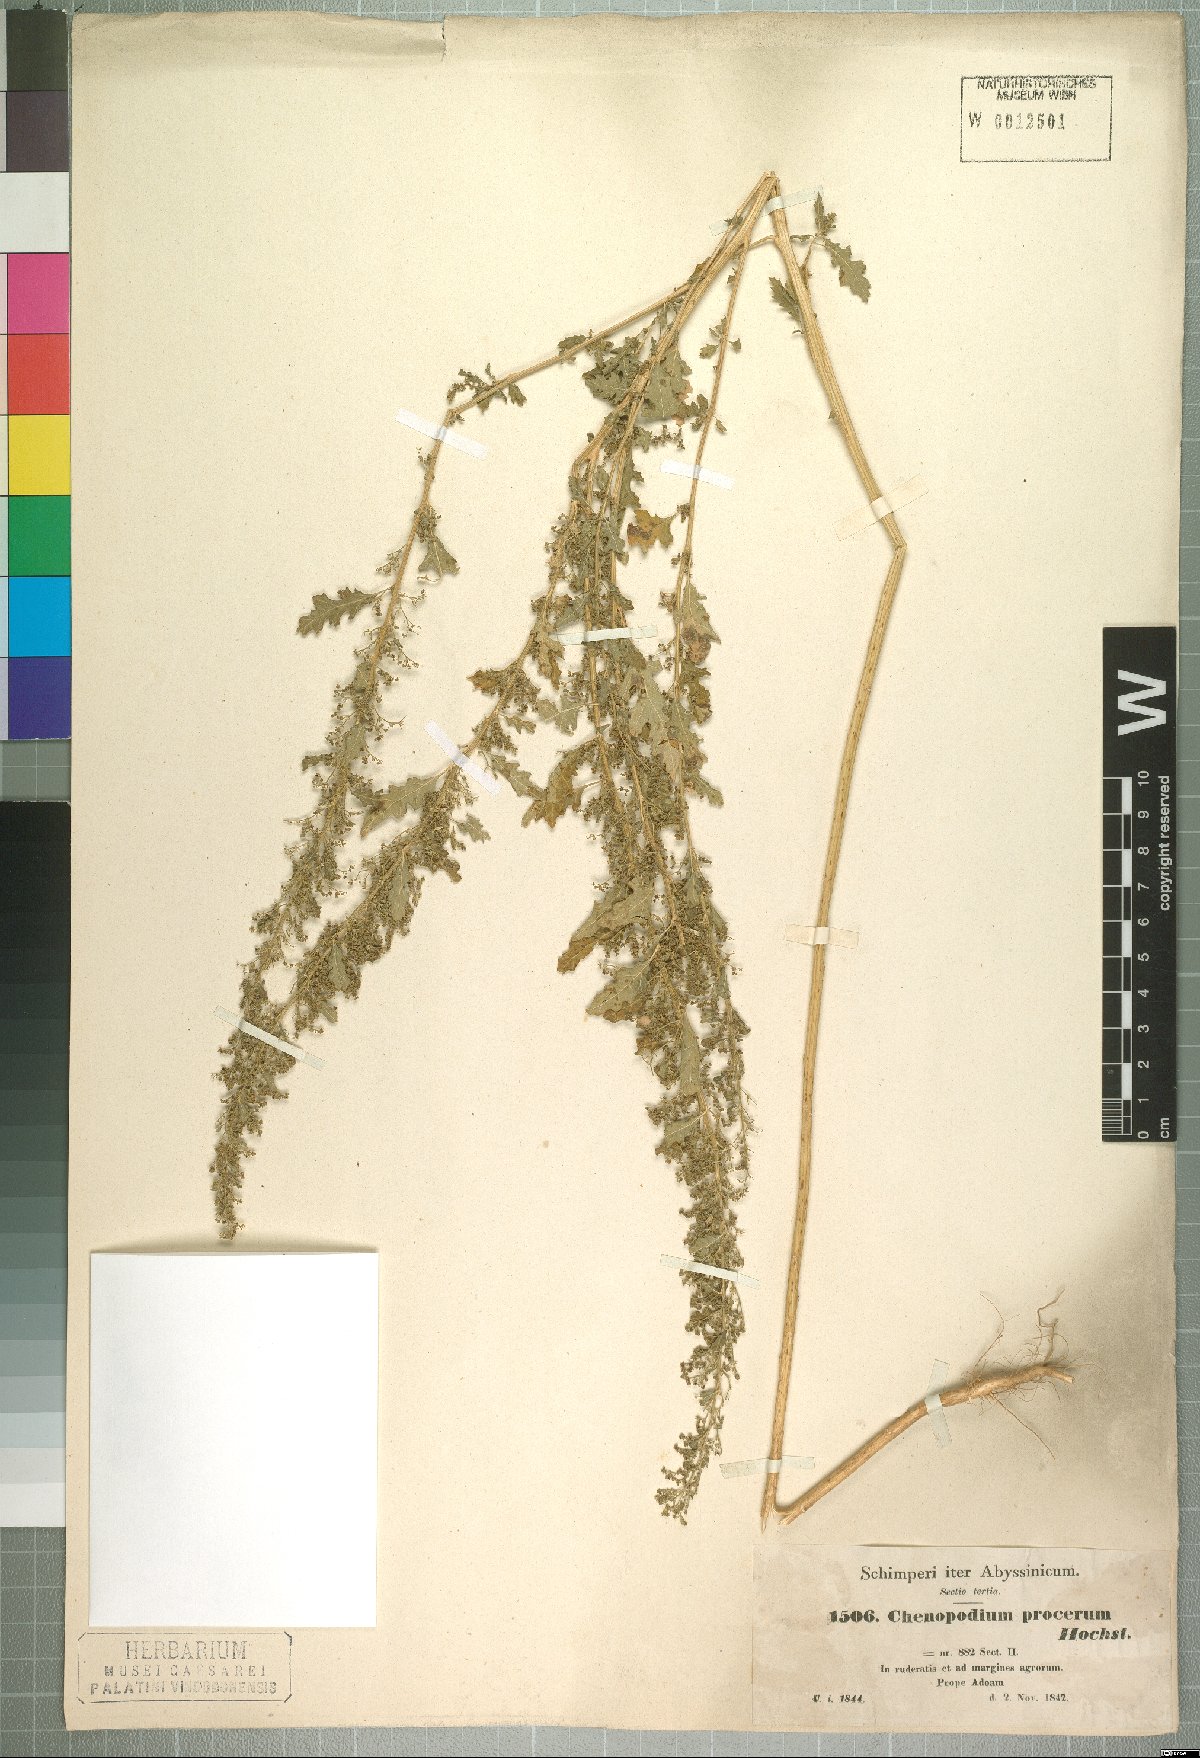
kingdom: Plantae
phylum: Tracheophyta
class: Magnoliopsida
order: Caryophyllales
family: Amaranthaceae
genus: Dysphania
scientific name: Dysphania procera
